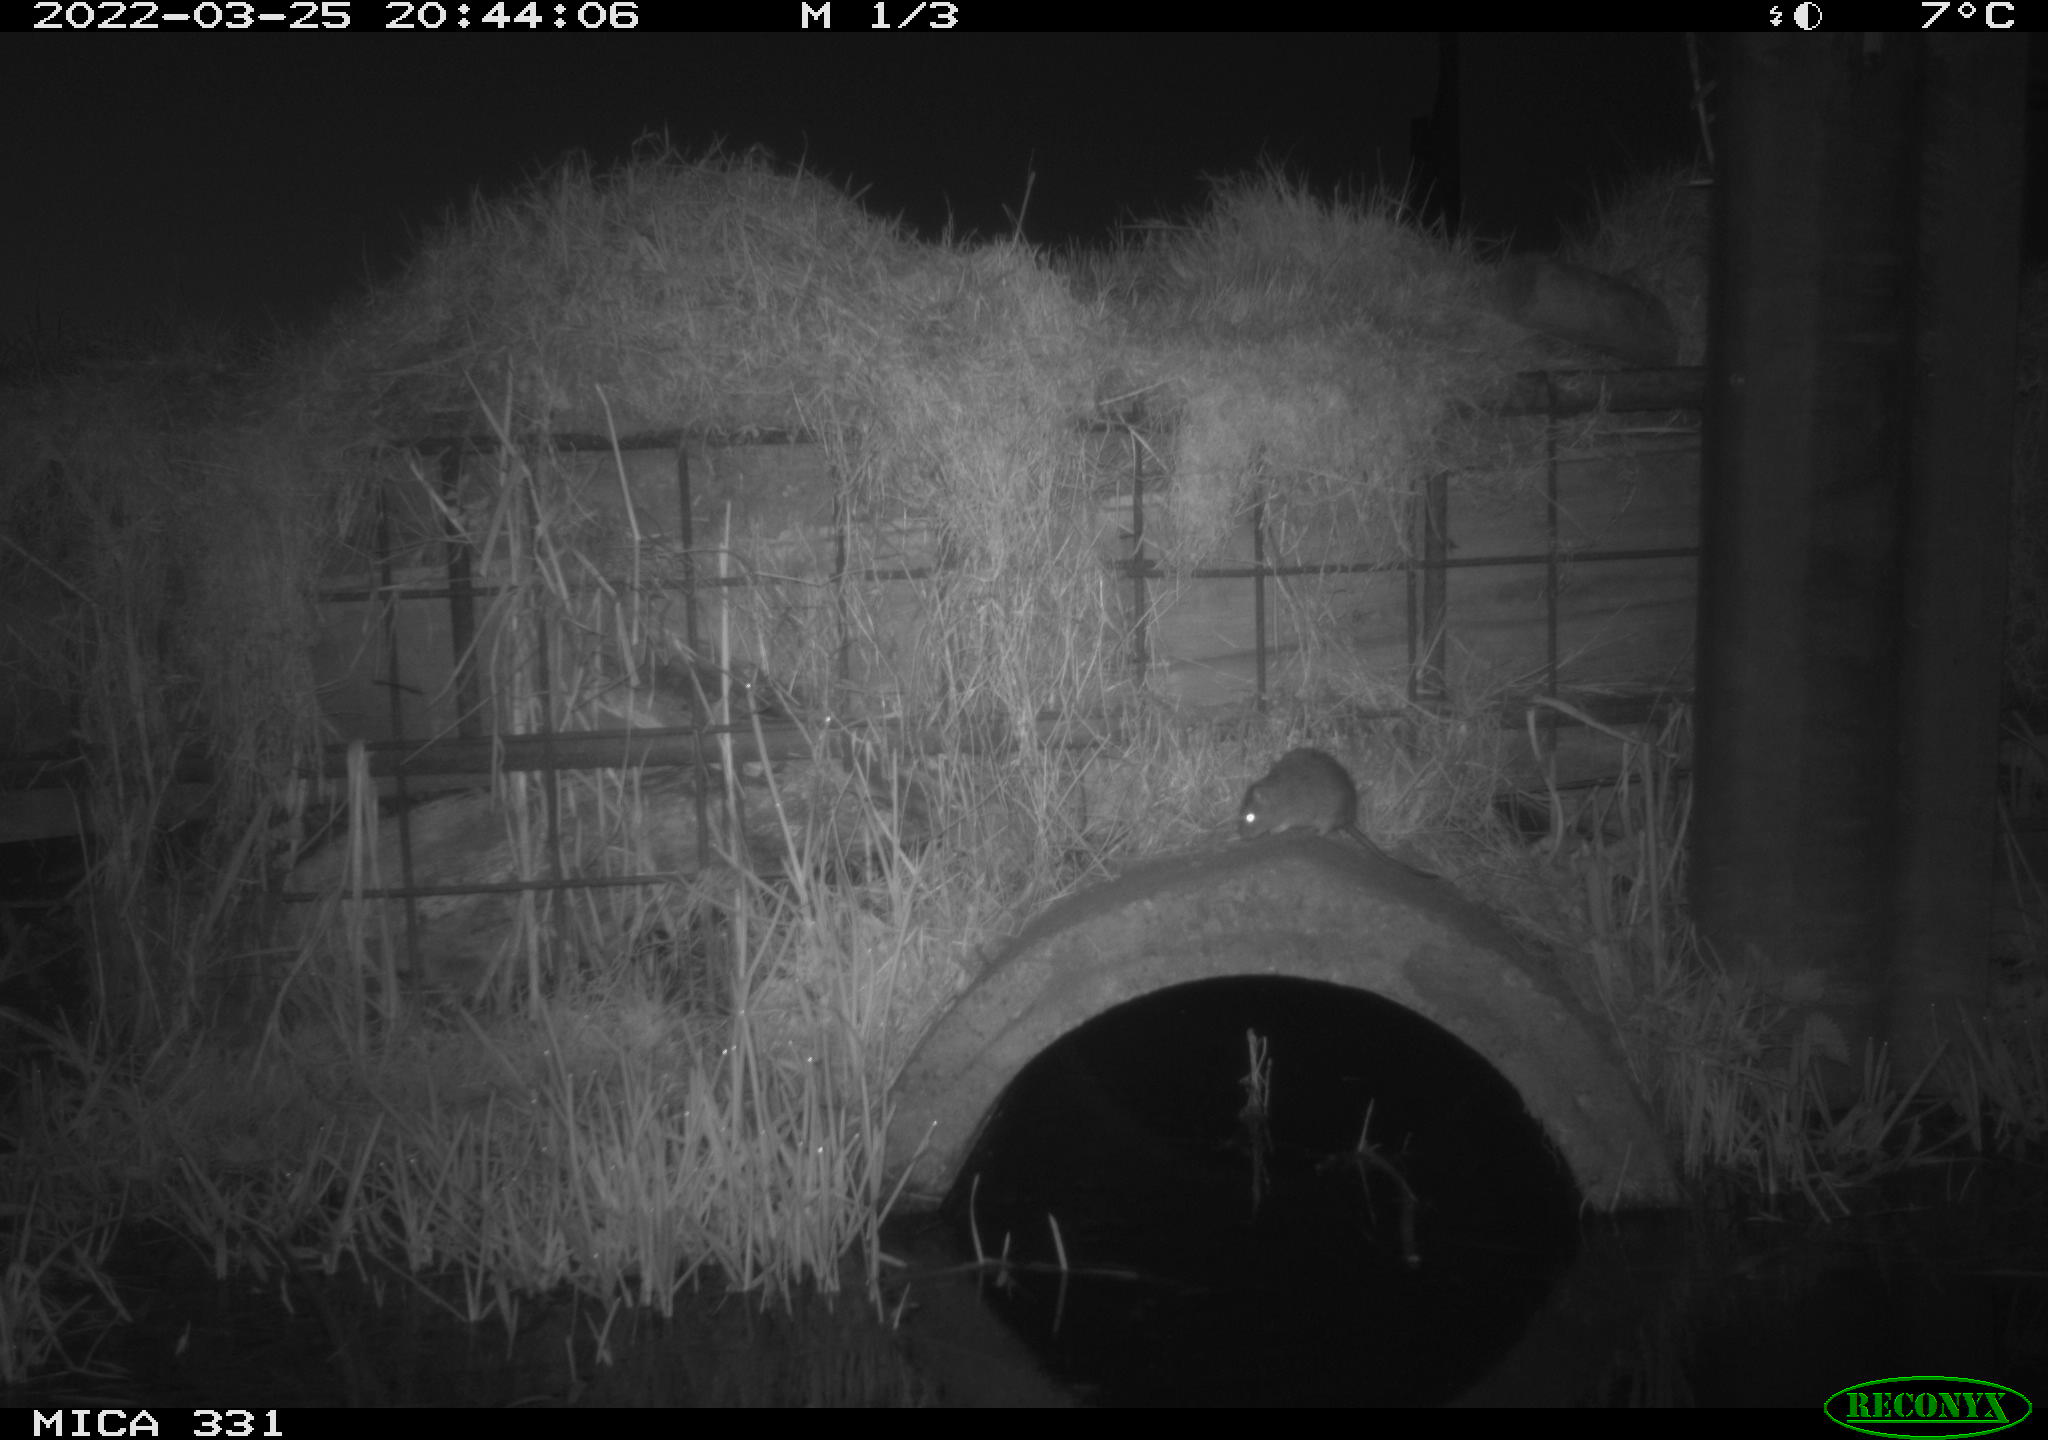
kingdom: Animalia
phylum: Chordata
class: Mammalia
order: Rodentia
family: Muridae
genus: Rattus
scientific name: Rattus norvegicus
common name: Brown rat
